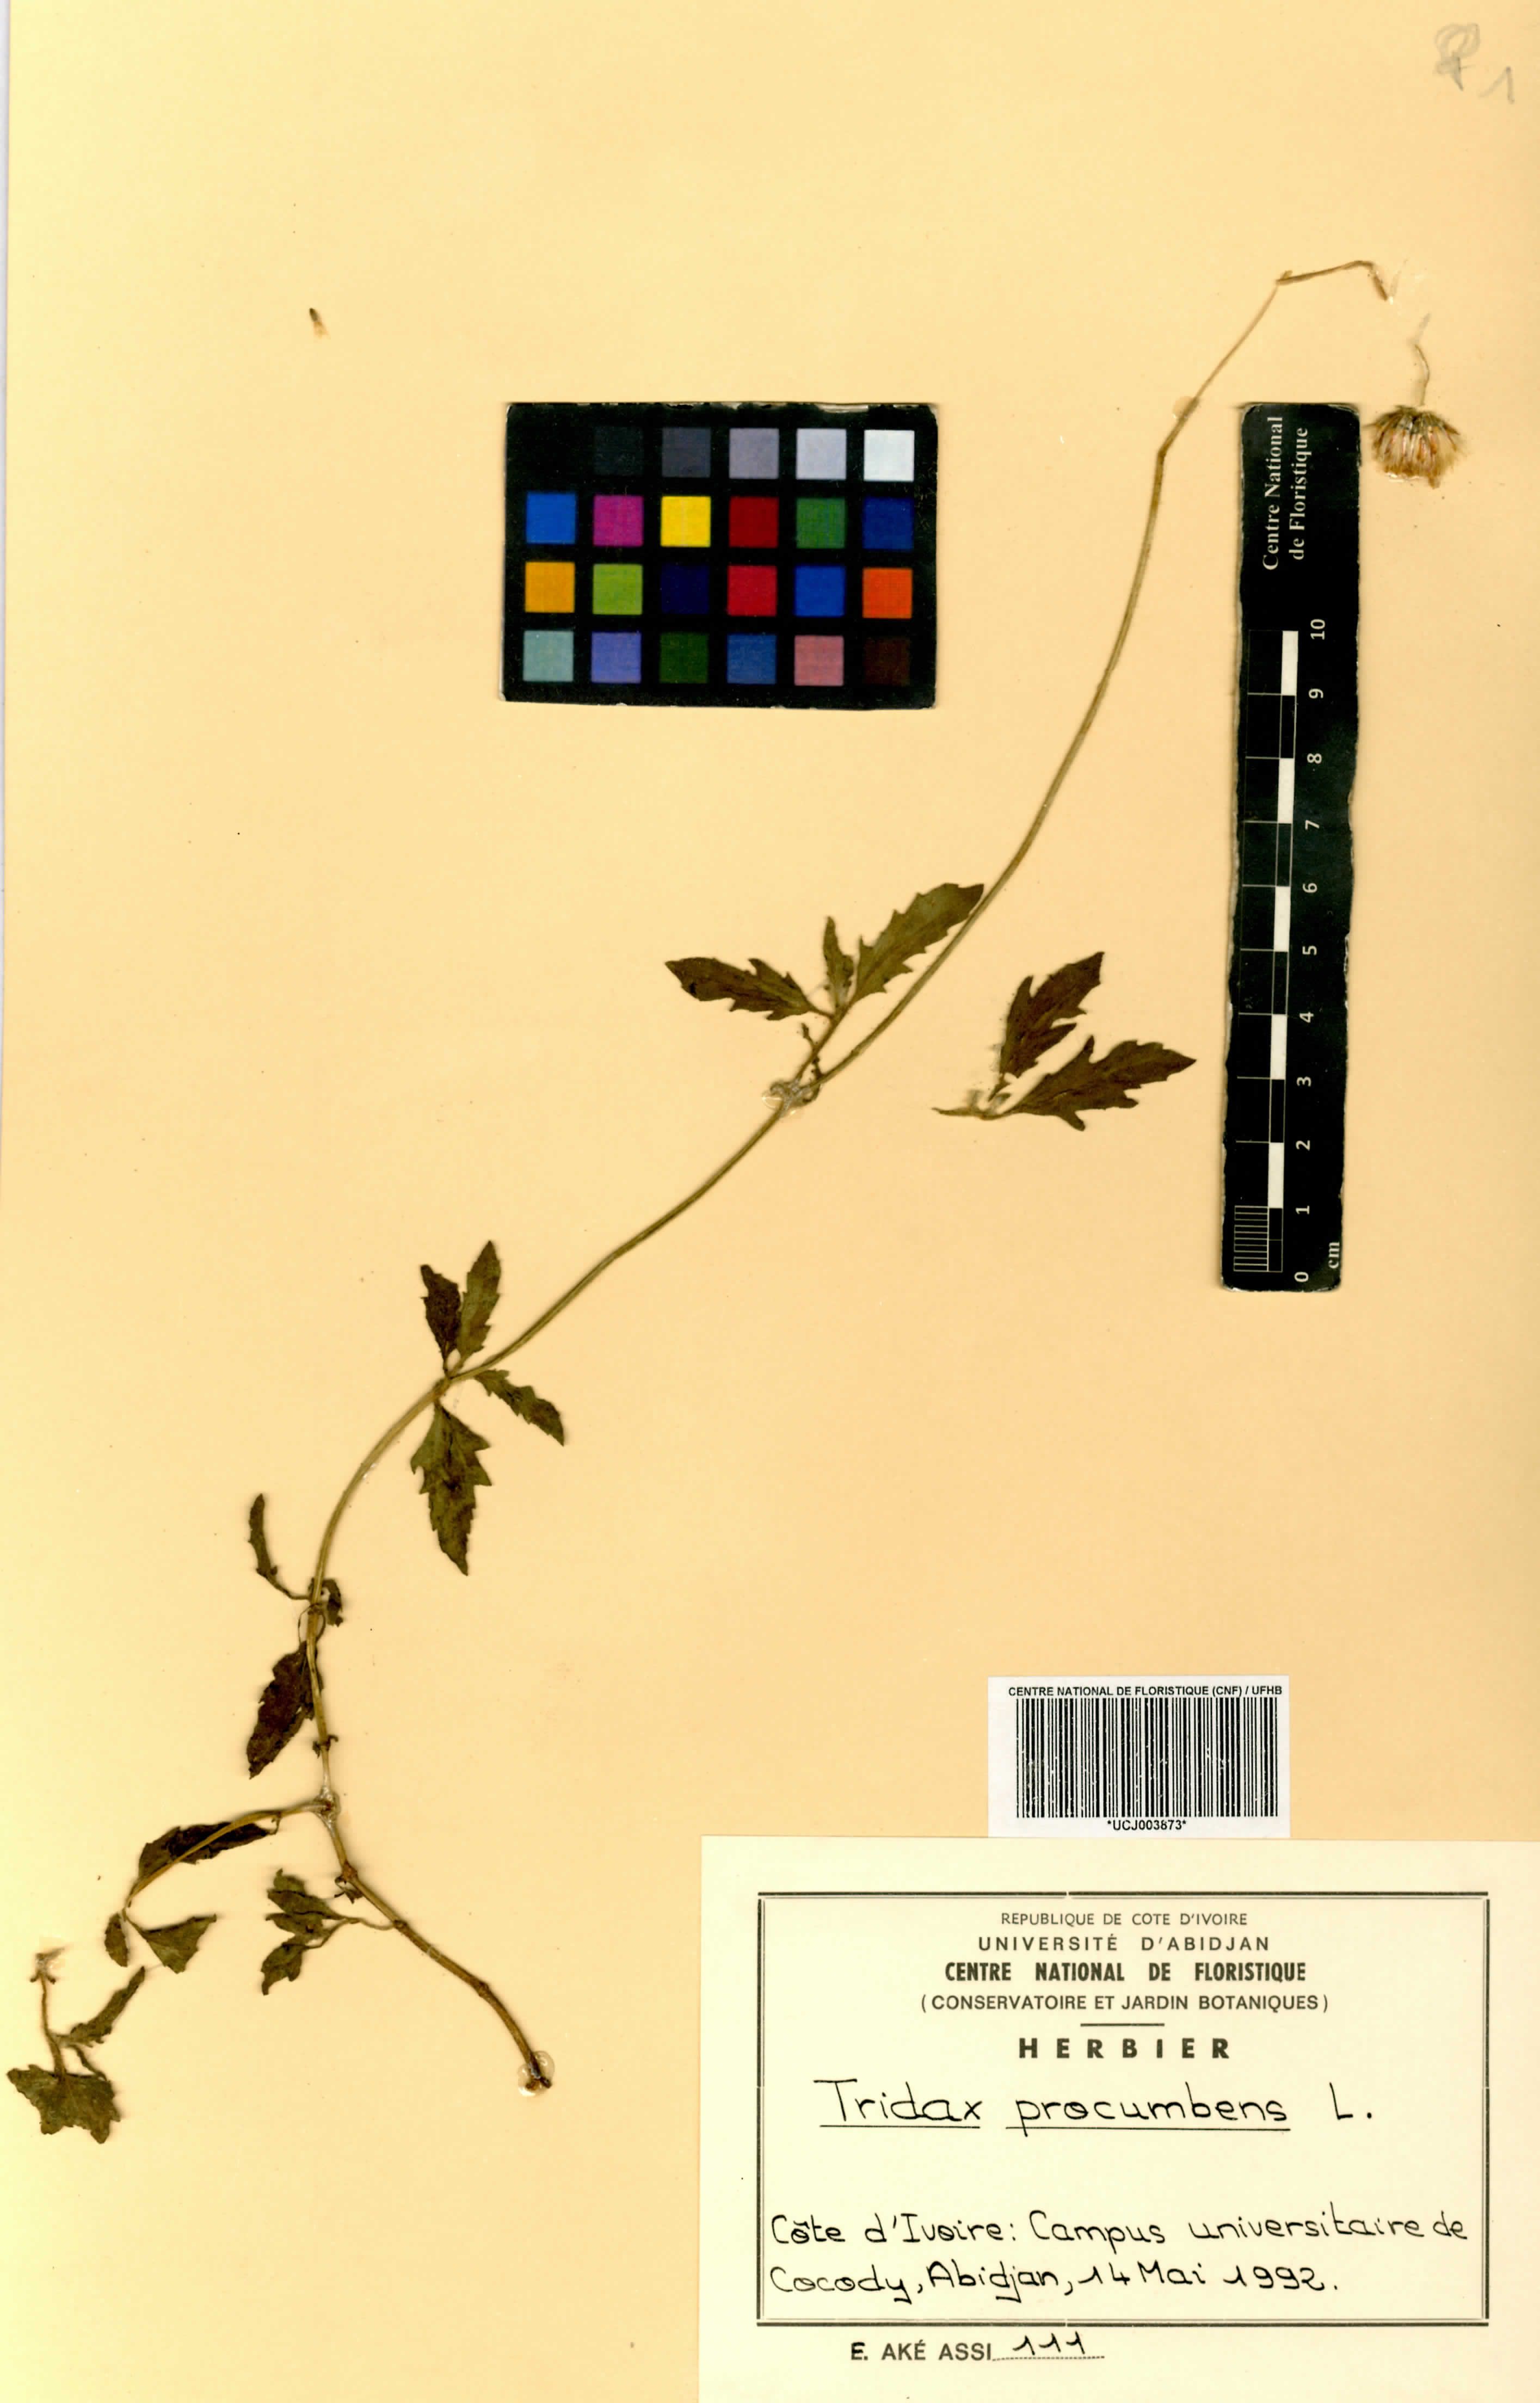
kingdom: Plantae
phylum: Tracheophyta
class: Magnoliopsida
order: Asterales
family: Asteraceae
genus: Tridax
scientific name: Tridax procumbens
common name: Coatbuttons
